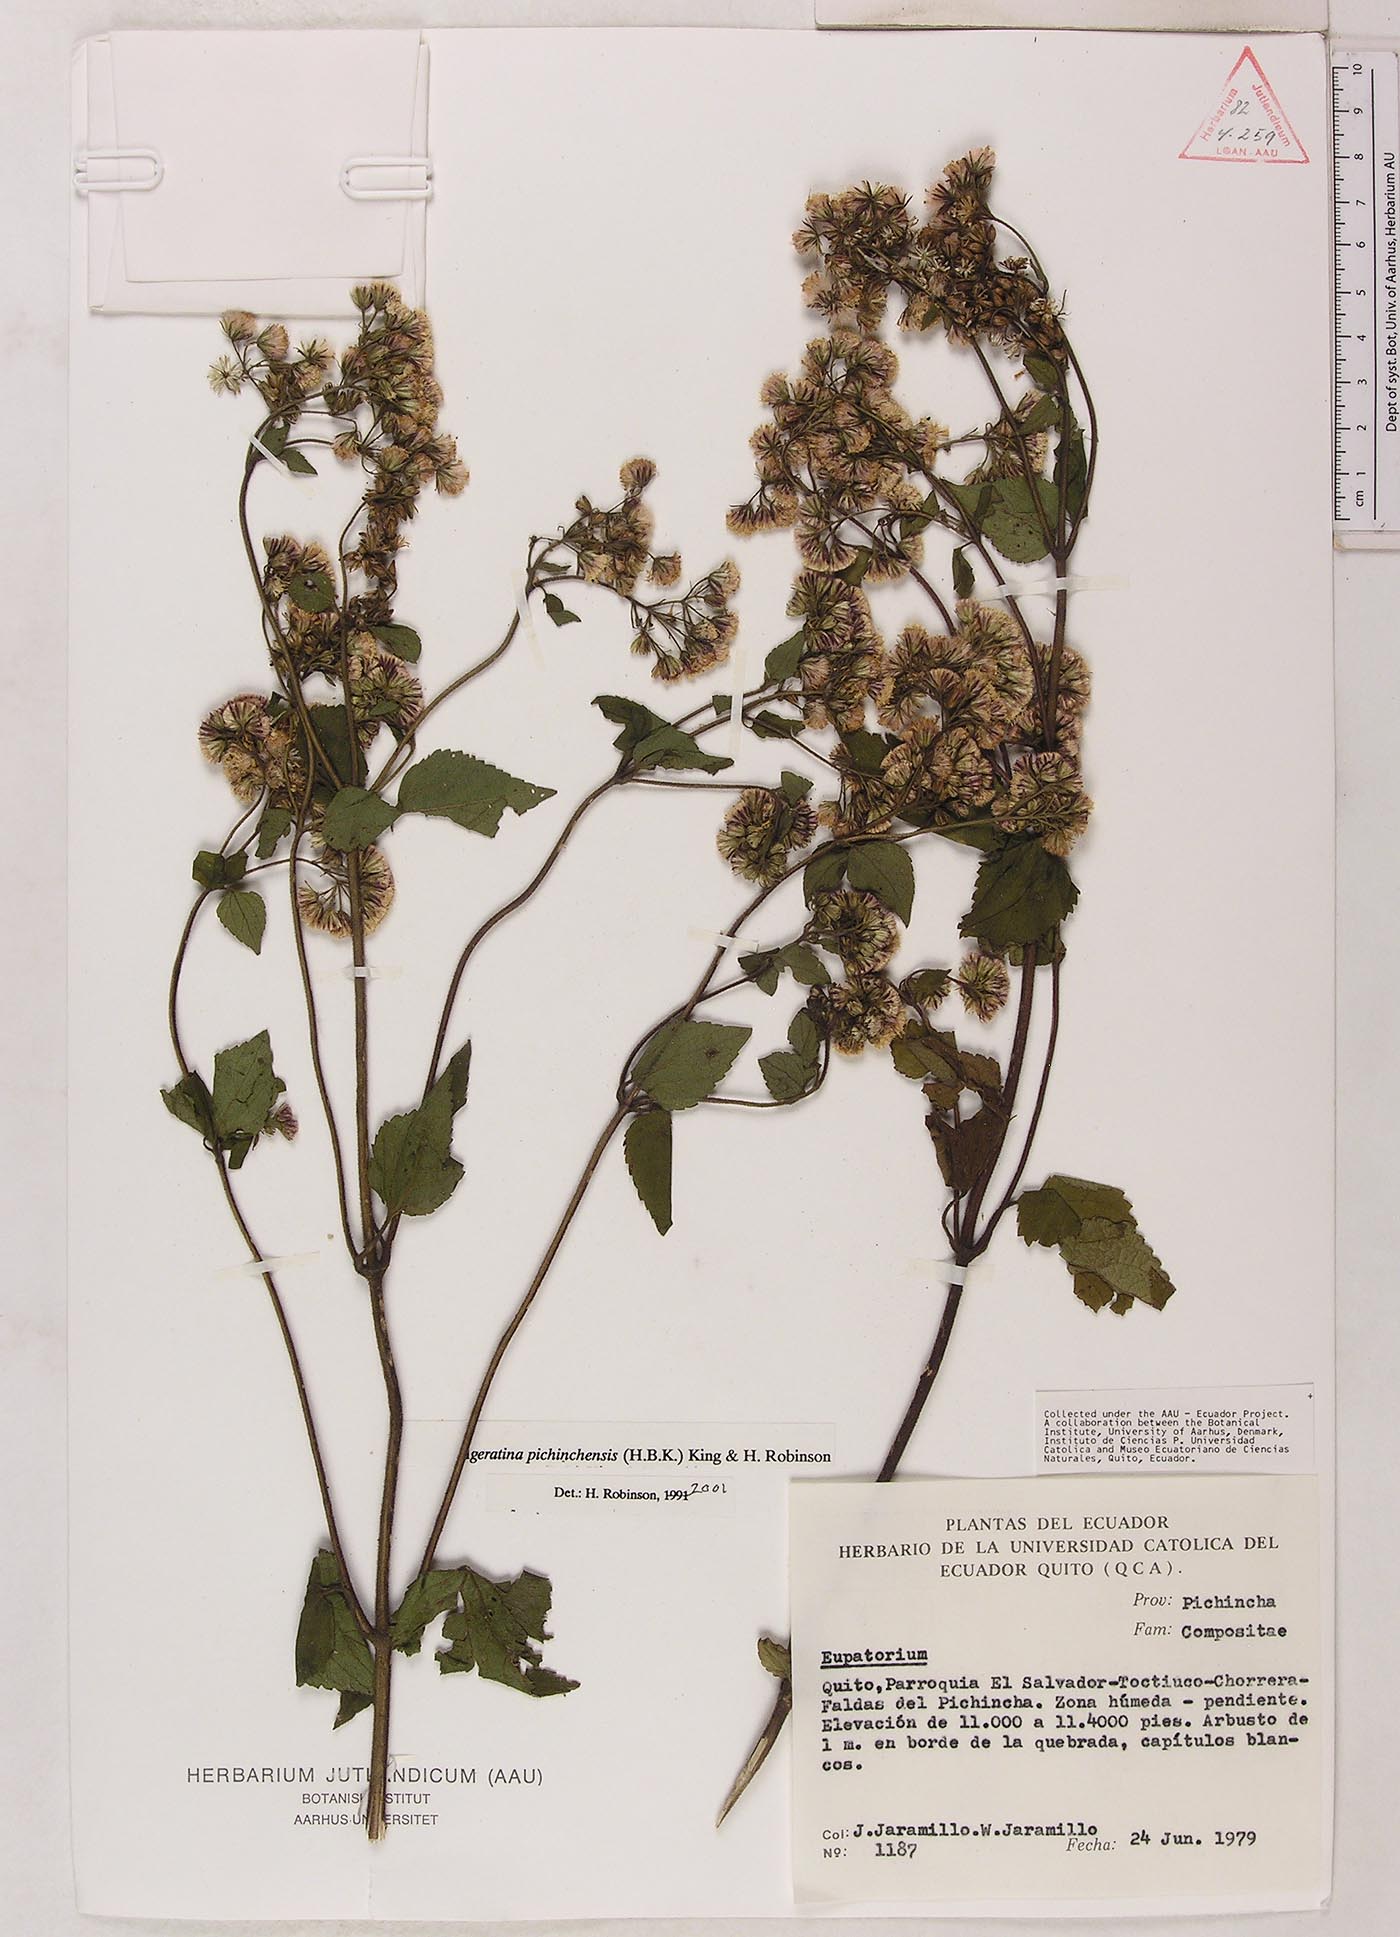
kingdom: Plantae
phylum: Tracheophyta
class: Magnoliopsida
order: Asterales
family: Asteraceae
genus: Ageratina
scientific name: Ageratina pichinchensis
